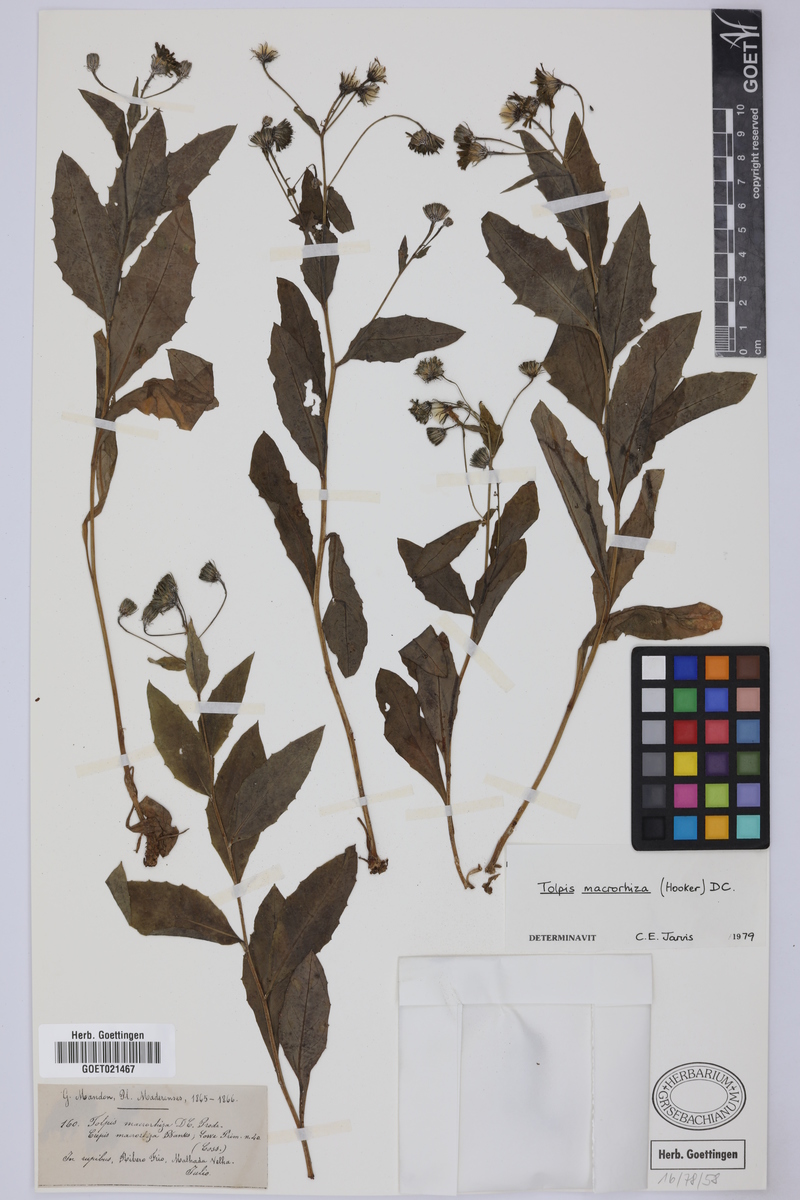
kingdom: Plantae
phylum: Tracheophyta
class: Magnoliopsida
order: Asterales
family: Asteraceae
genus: Tolpis
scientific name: Tolpis macrorhiza
